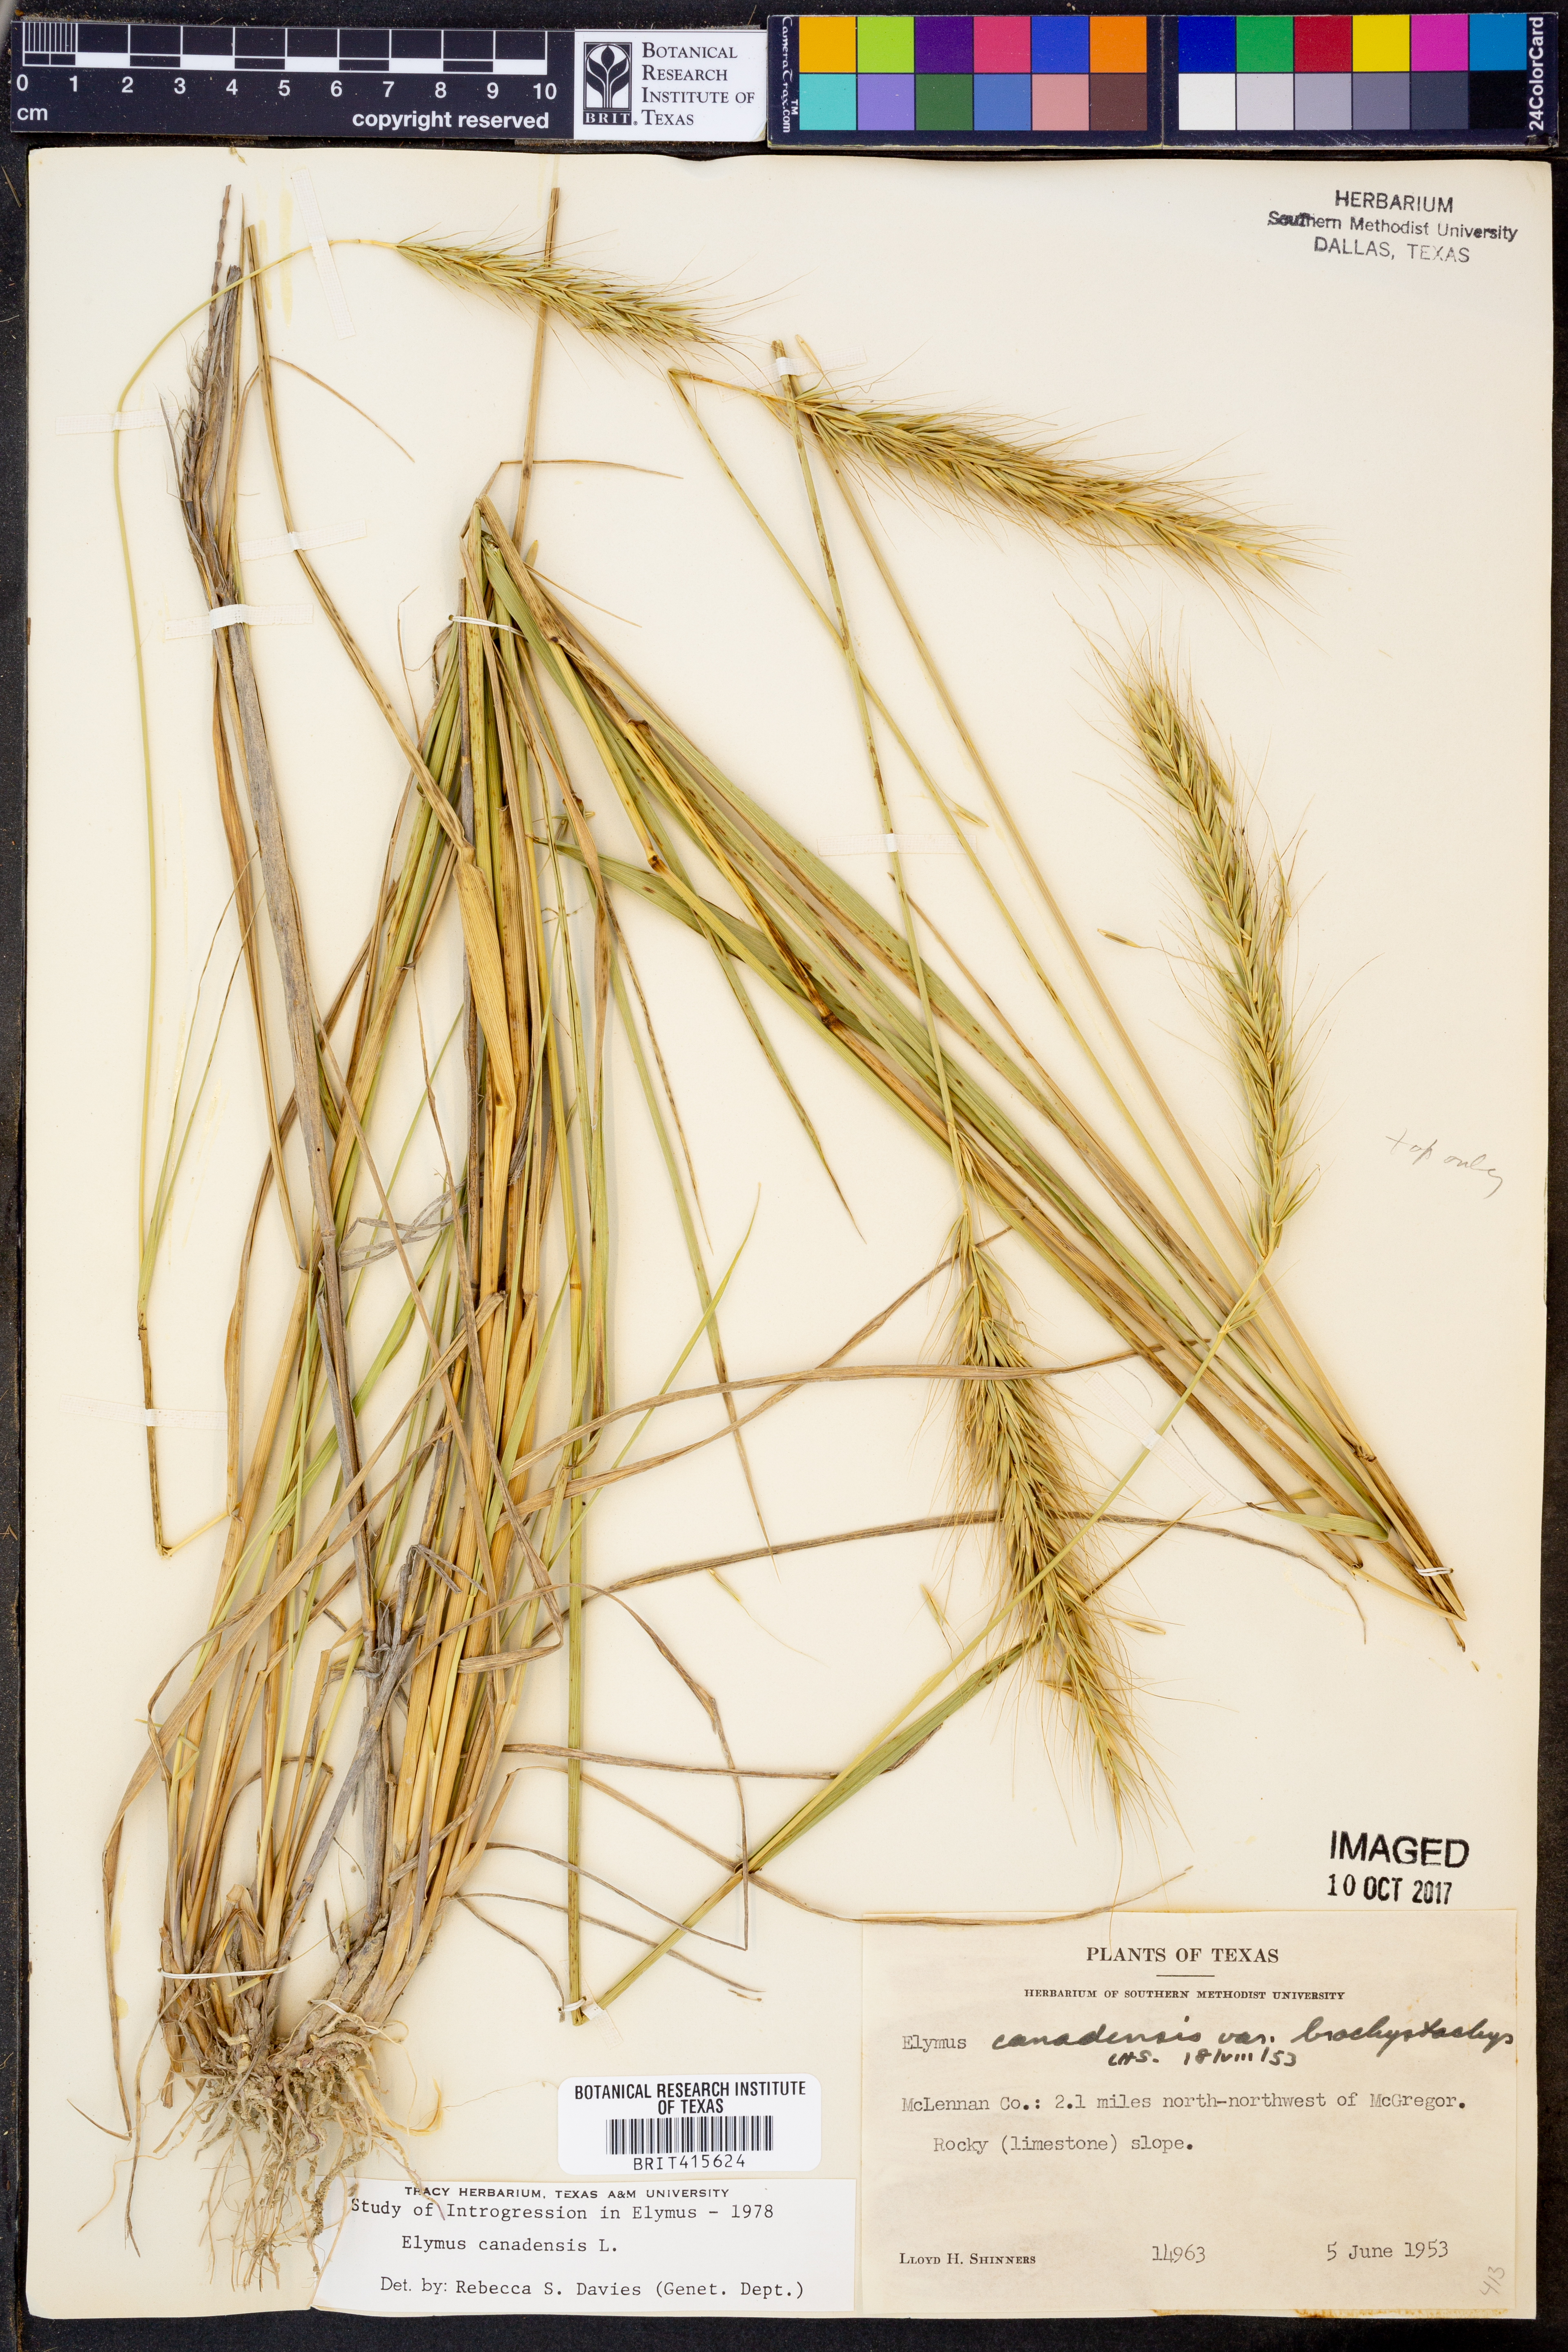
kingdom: Plantae
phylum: Tracheophyta
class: Liliopsida
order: Poales
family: Poaceae
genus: Elymus
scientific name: Elymus canadensis
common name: Canada wild rye
